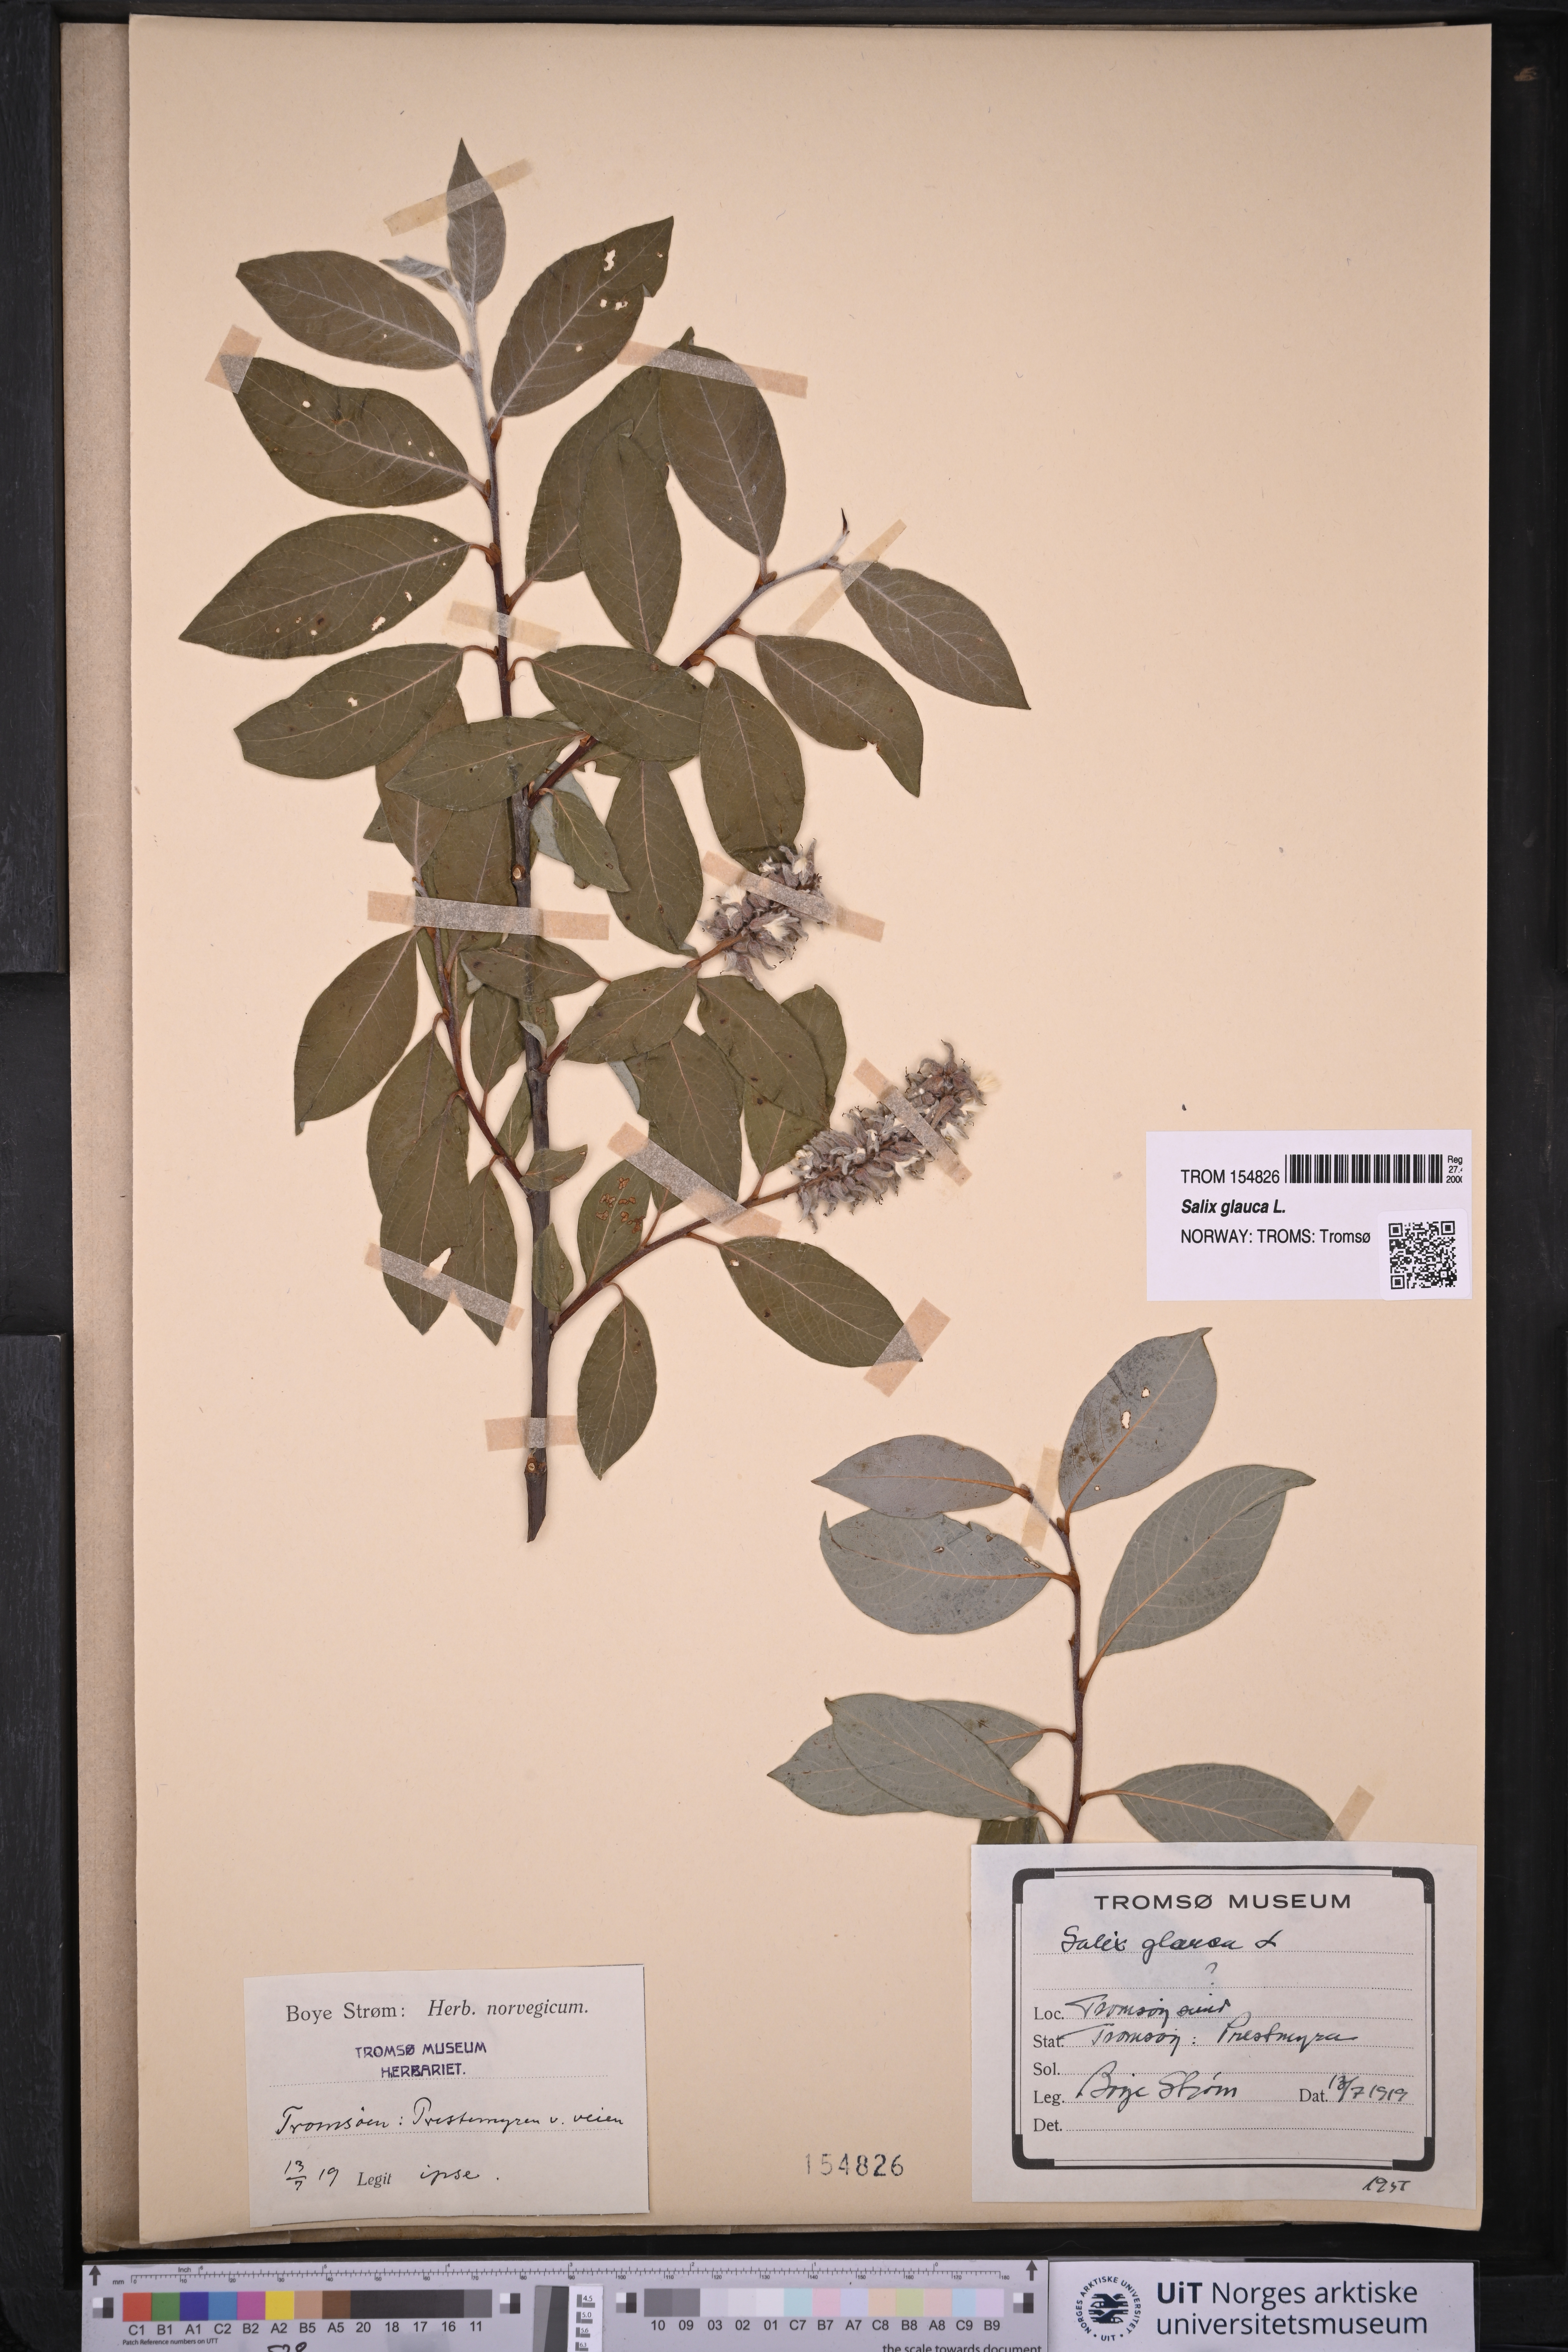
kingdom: Plantae
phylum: Tracheophyta
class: Magnoliopsida
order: Malpighiales
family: Salicaceae
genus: Salix
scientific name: Salix glauca
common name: Glaucous willow
